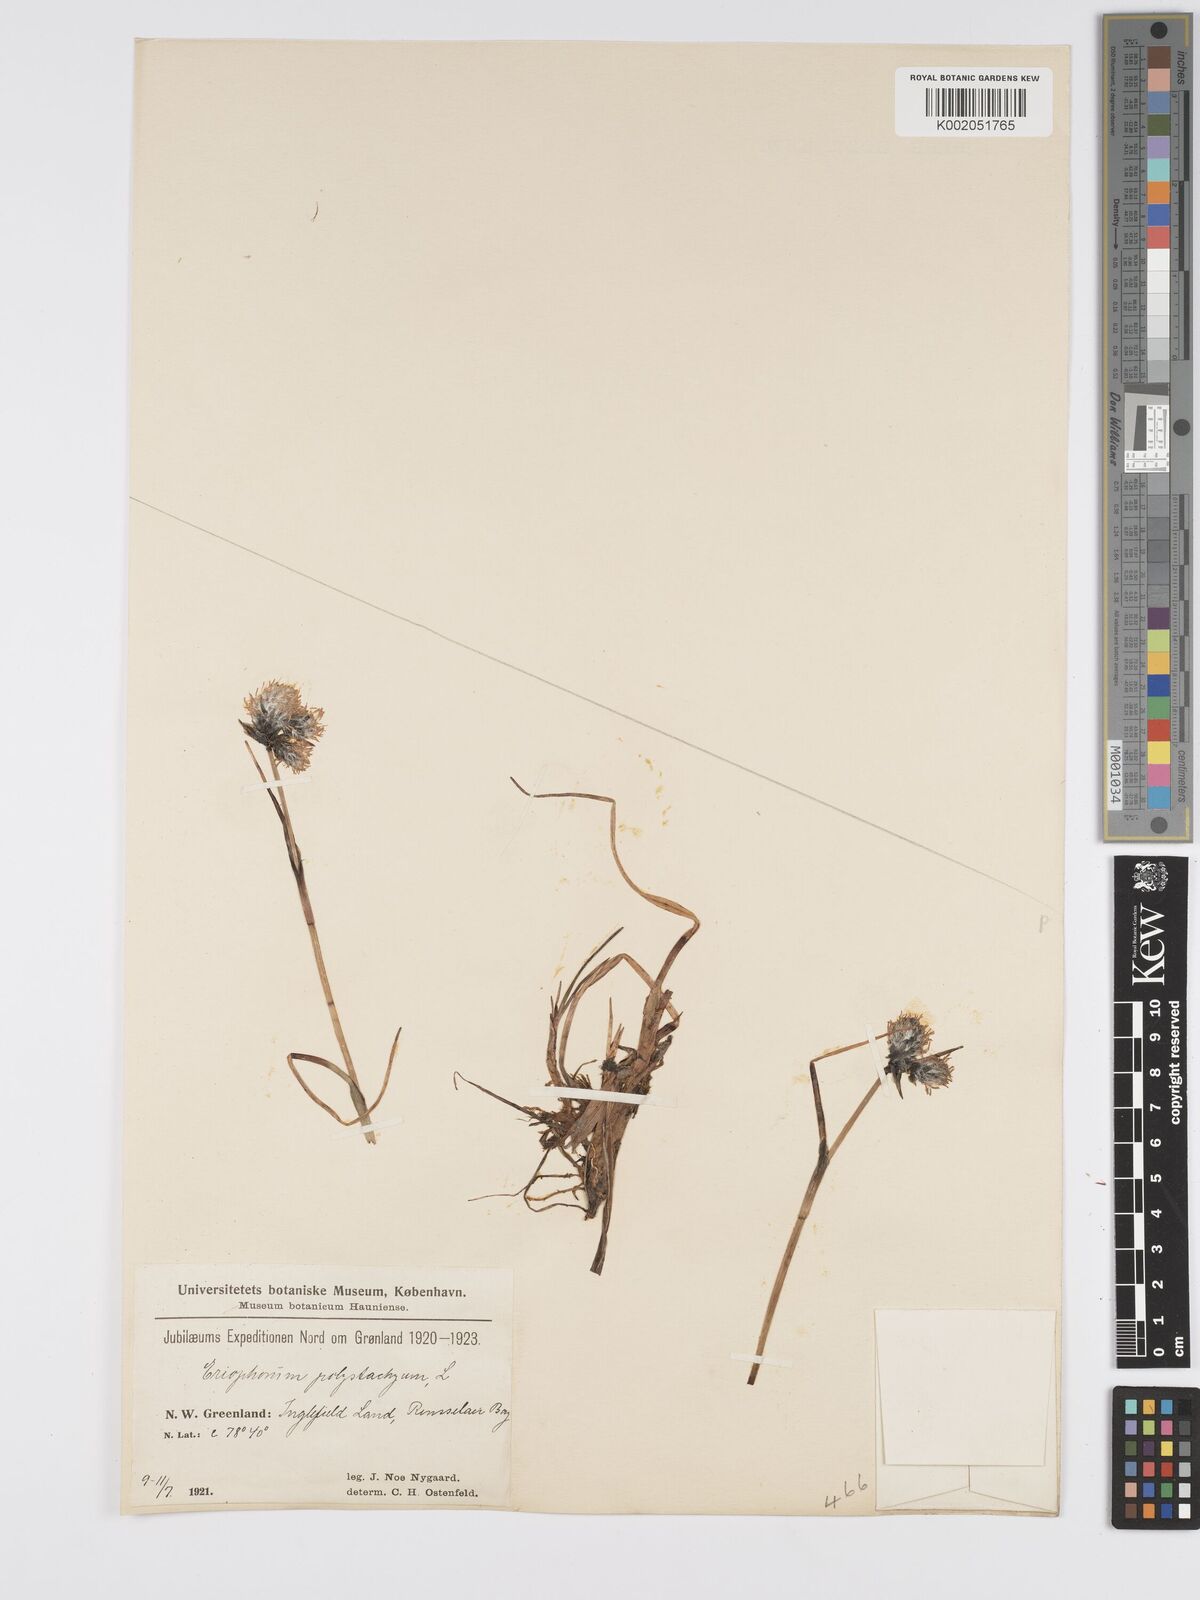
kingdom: Plantae
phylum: Tracheophyta
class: Liliopsida
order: Poales
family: Cyperaceae
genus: Eriophorum
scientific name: Eriophorum angustifolium
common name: Common cottongrass
